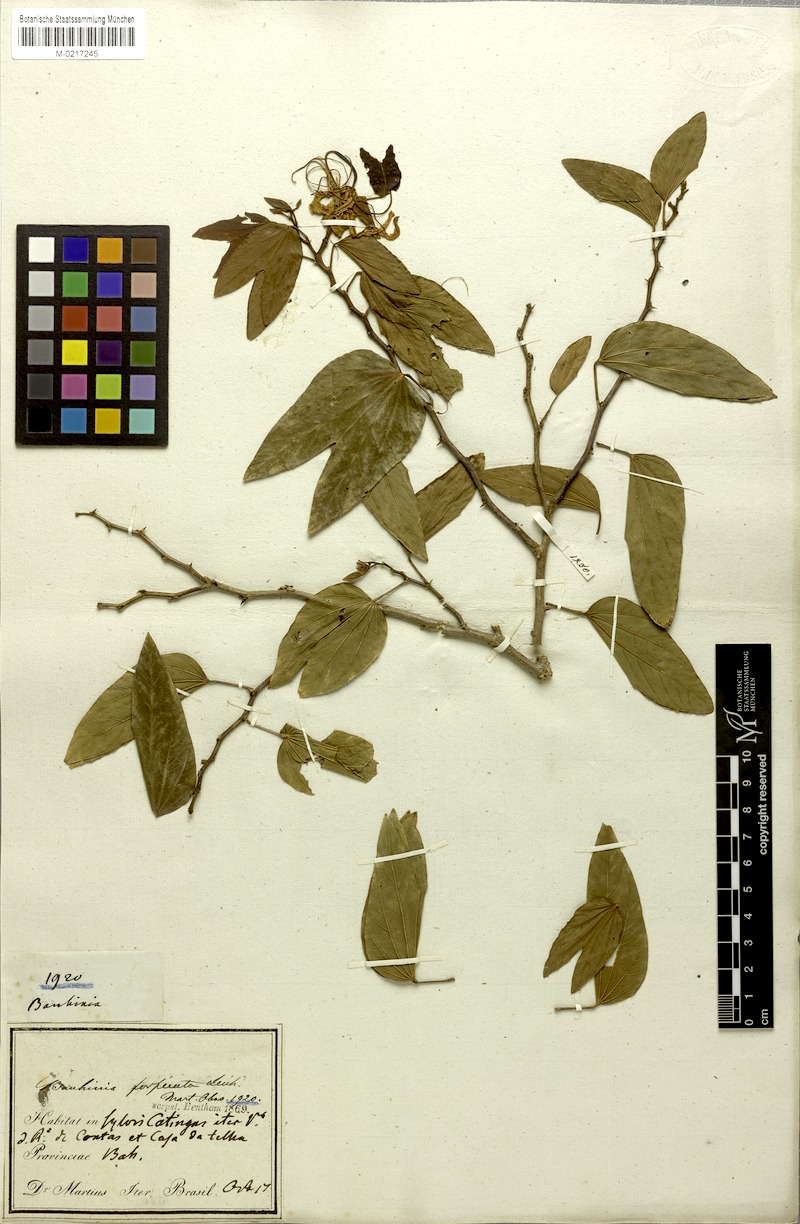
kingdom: Plantae
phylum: Tracheophyta
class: Magnoliopsida
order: Fabales
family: Fabaceae
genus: Bauhinia
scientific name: Bauhinia forficata
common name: Orchid tree
